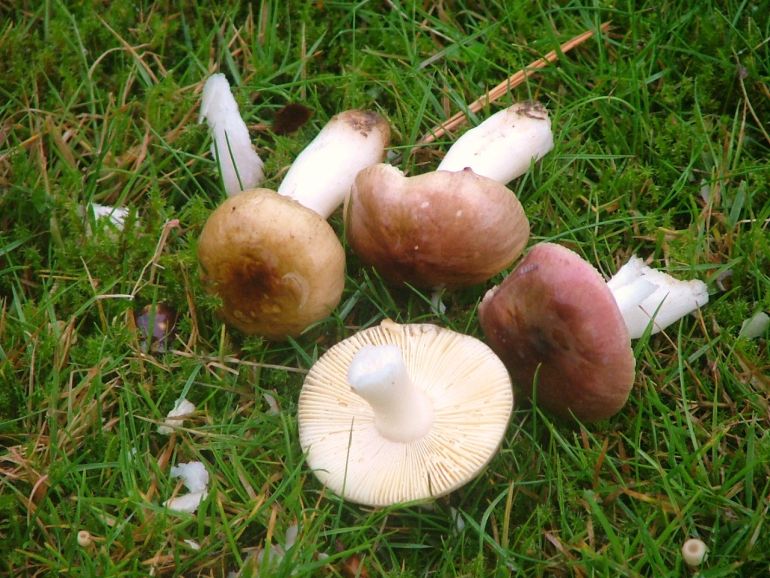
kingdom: Fungi
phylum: Basidiomycota
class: Agaricomycetes
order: Russulales
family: Russulaceae
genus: Russula
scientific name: Russula cessans
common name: fyrre-skørhat
